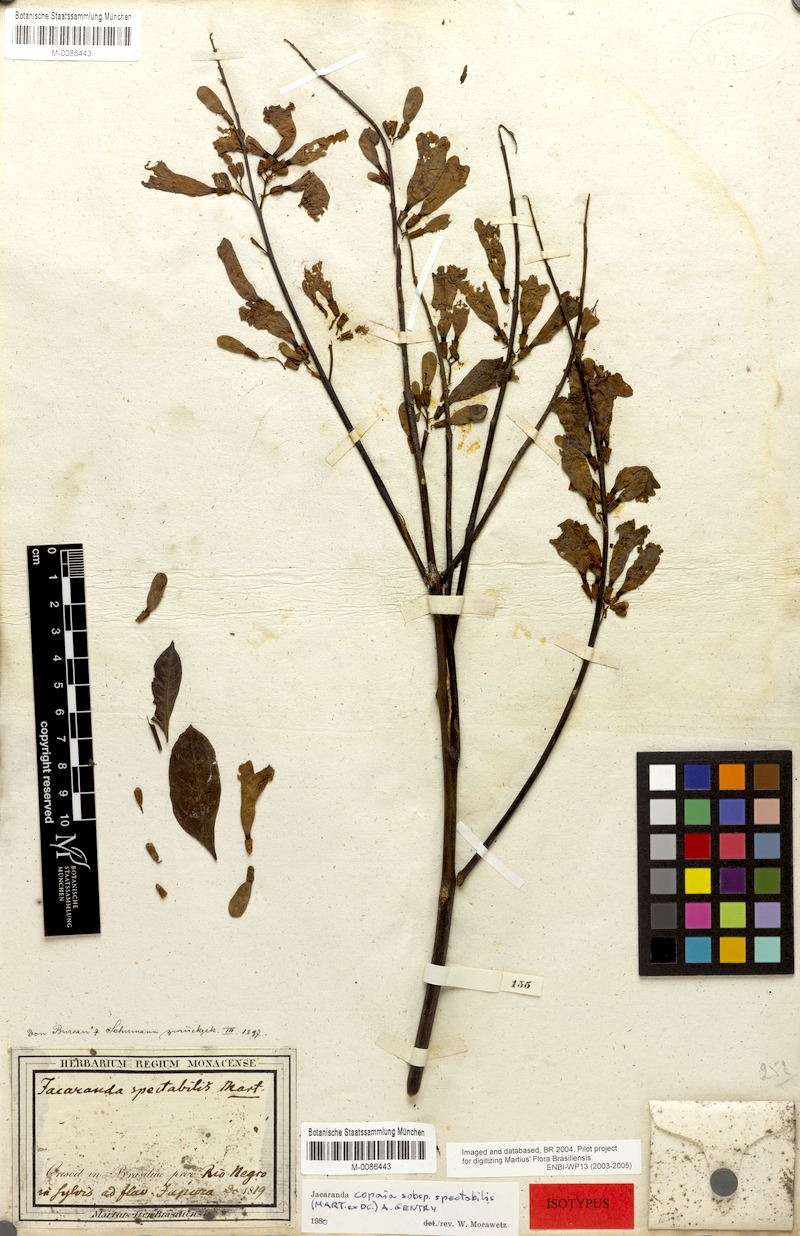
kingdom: Plantae
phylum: Tracheophyta
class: Magnoliopsida
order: Lamiales
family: Bignoniaceae
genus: Jacaranda
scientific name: Jacaranda copaia
